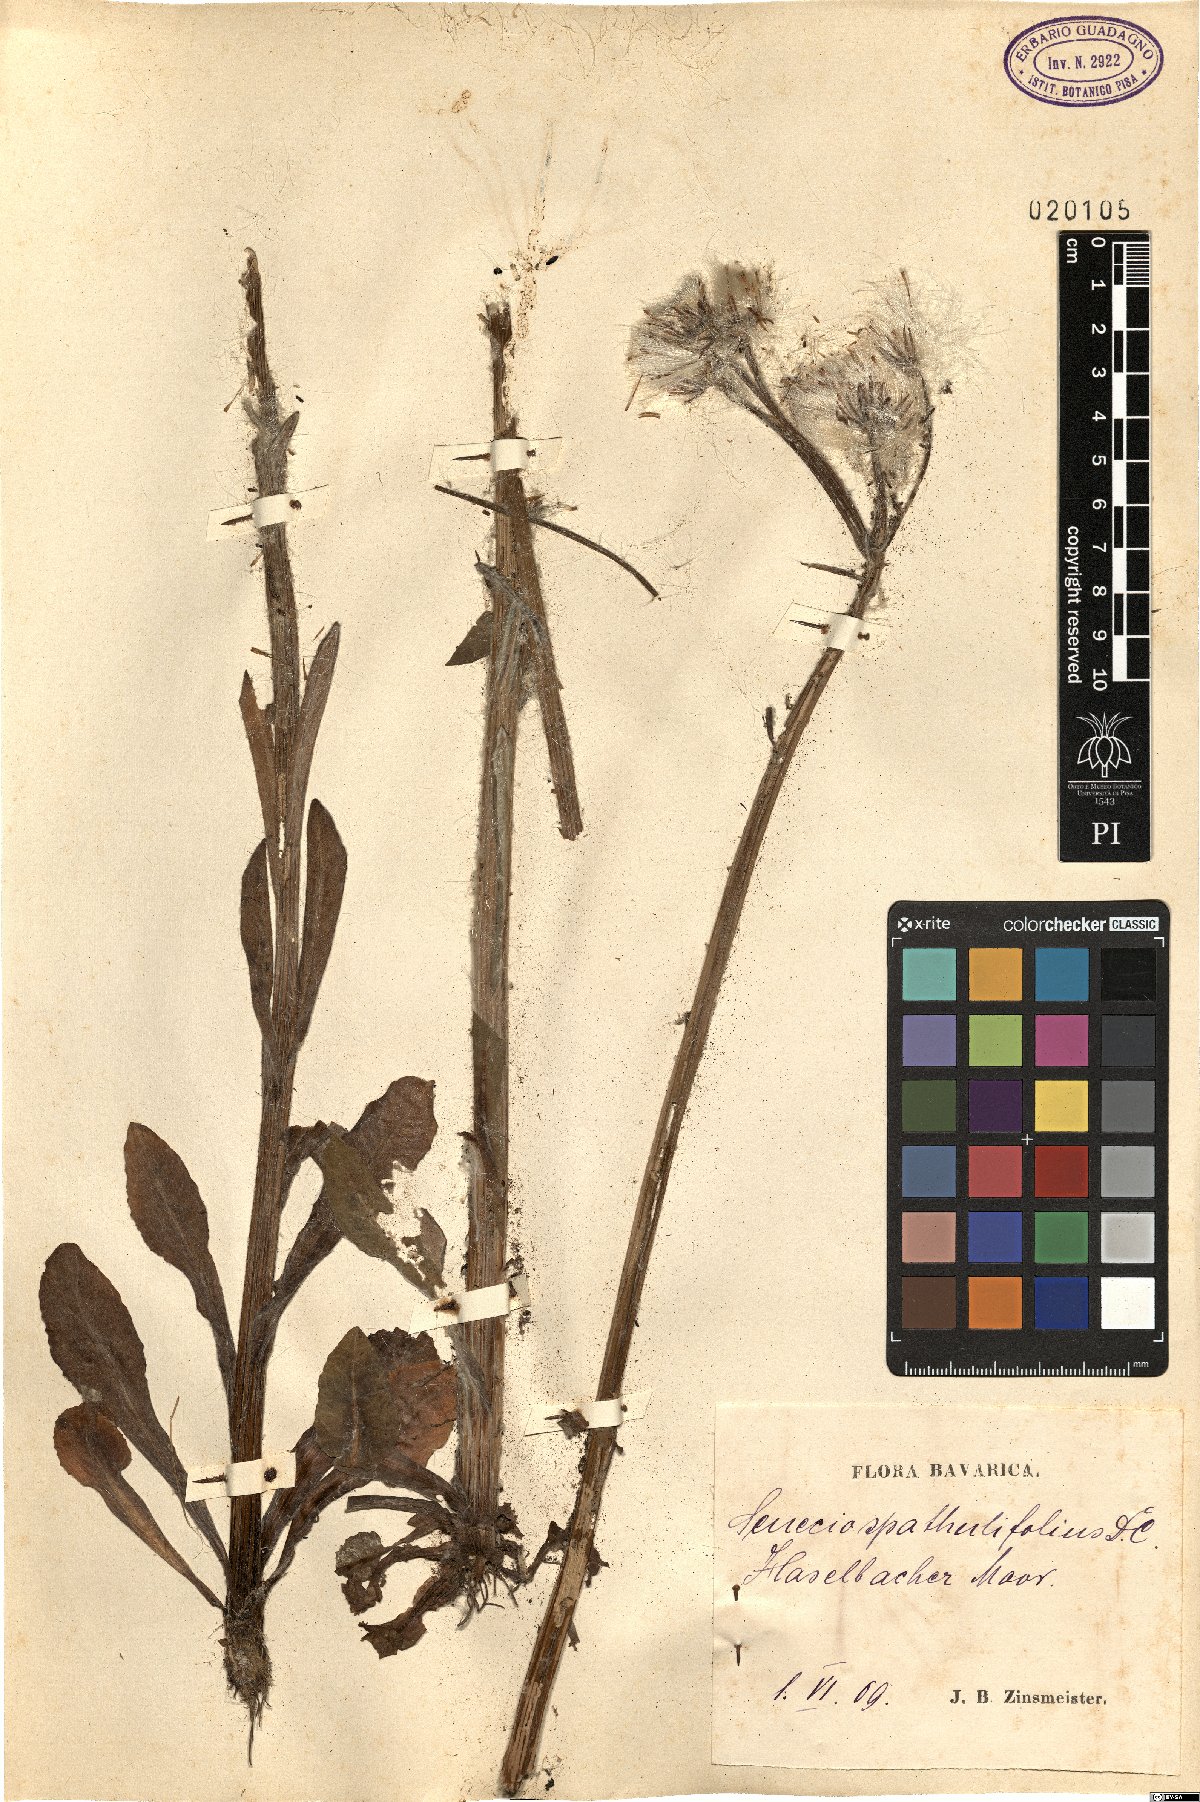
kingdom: Plantae
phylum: Tracheophyta
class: Magnoliopsida
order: Asterales
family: Asteraceae
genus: Tephroseris
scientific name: Tephroseris helenitis
